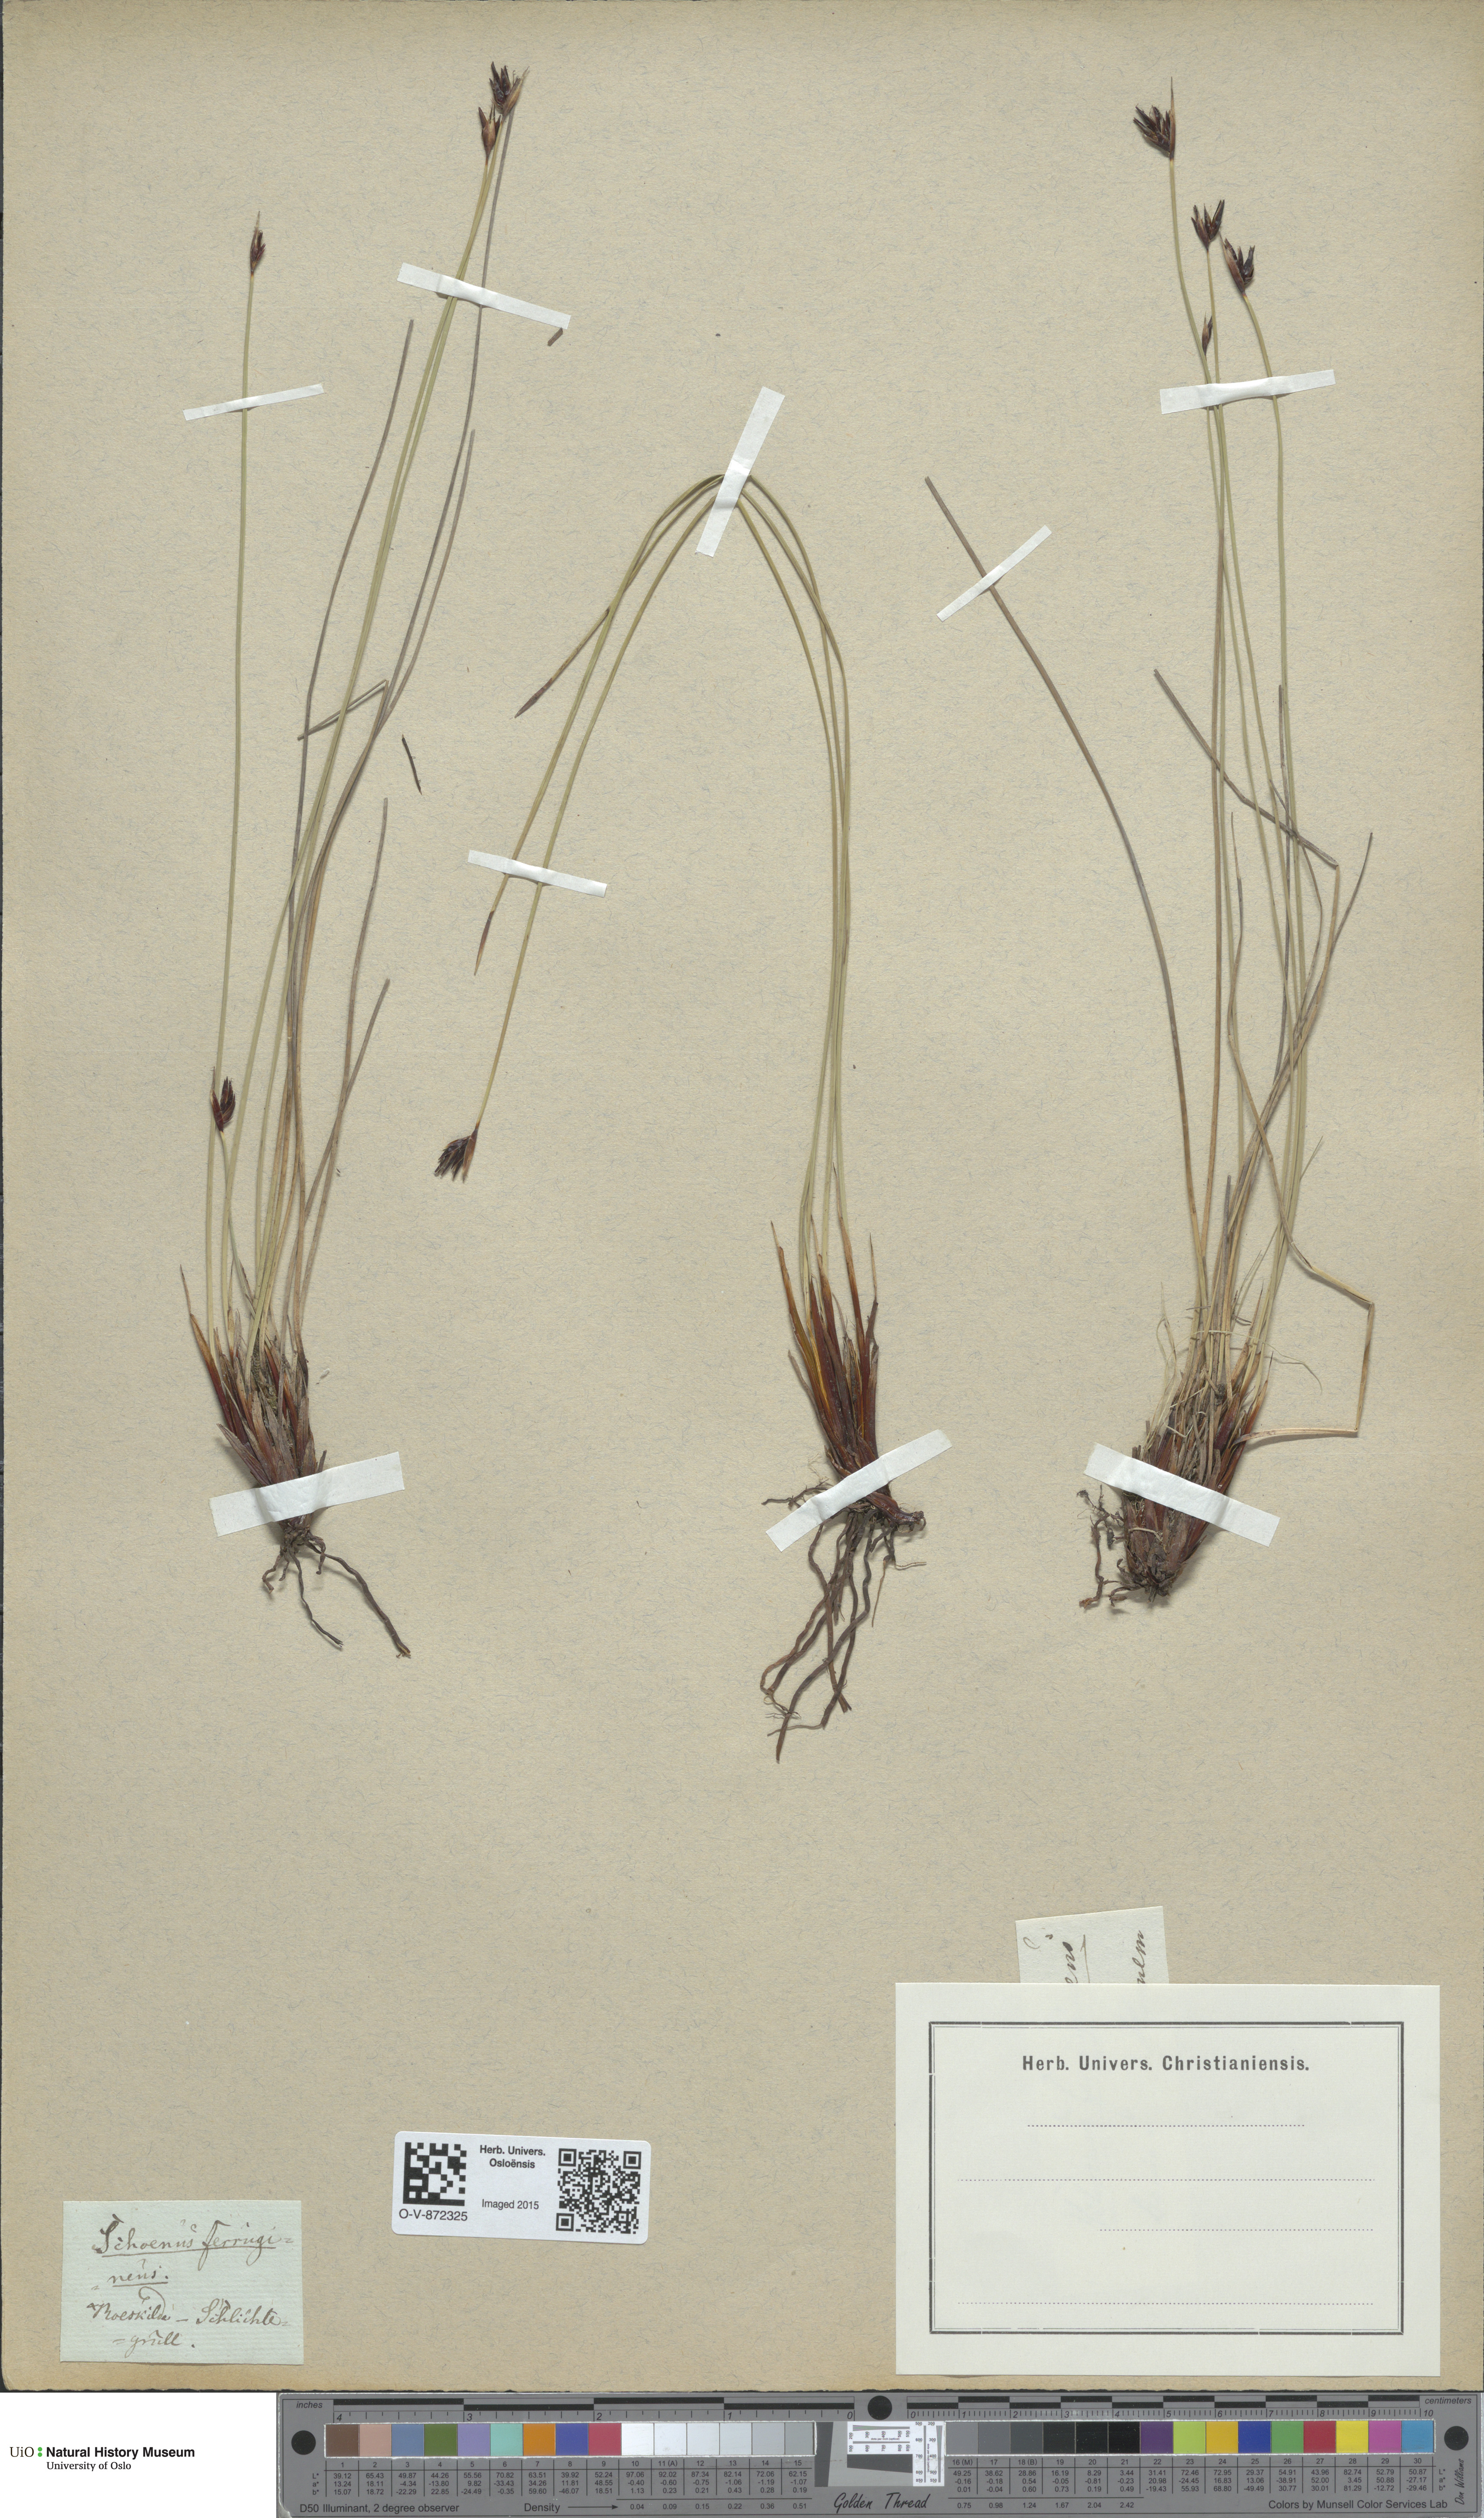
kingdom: Plantae
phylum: Tracheophyta
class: Liliopsida
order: Poales
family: Cyperaceae
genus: Schoenus
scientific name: Schoenus ferrugineus
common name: Brown bog-rush
